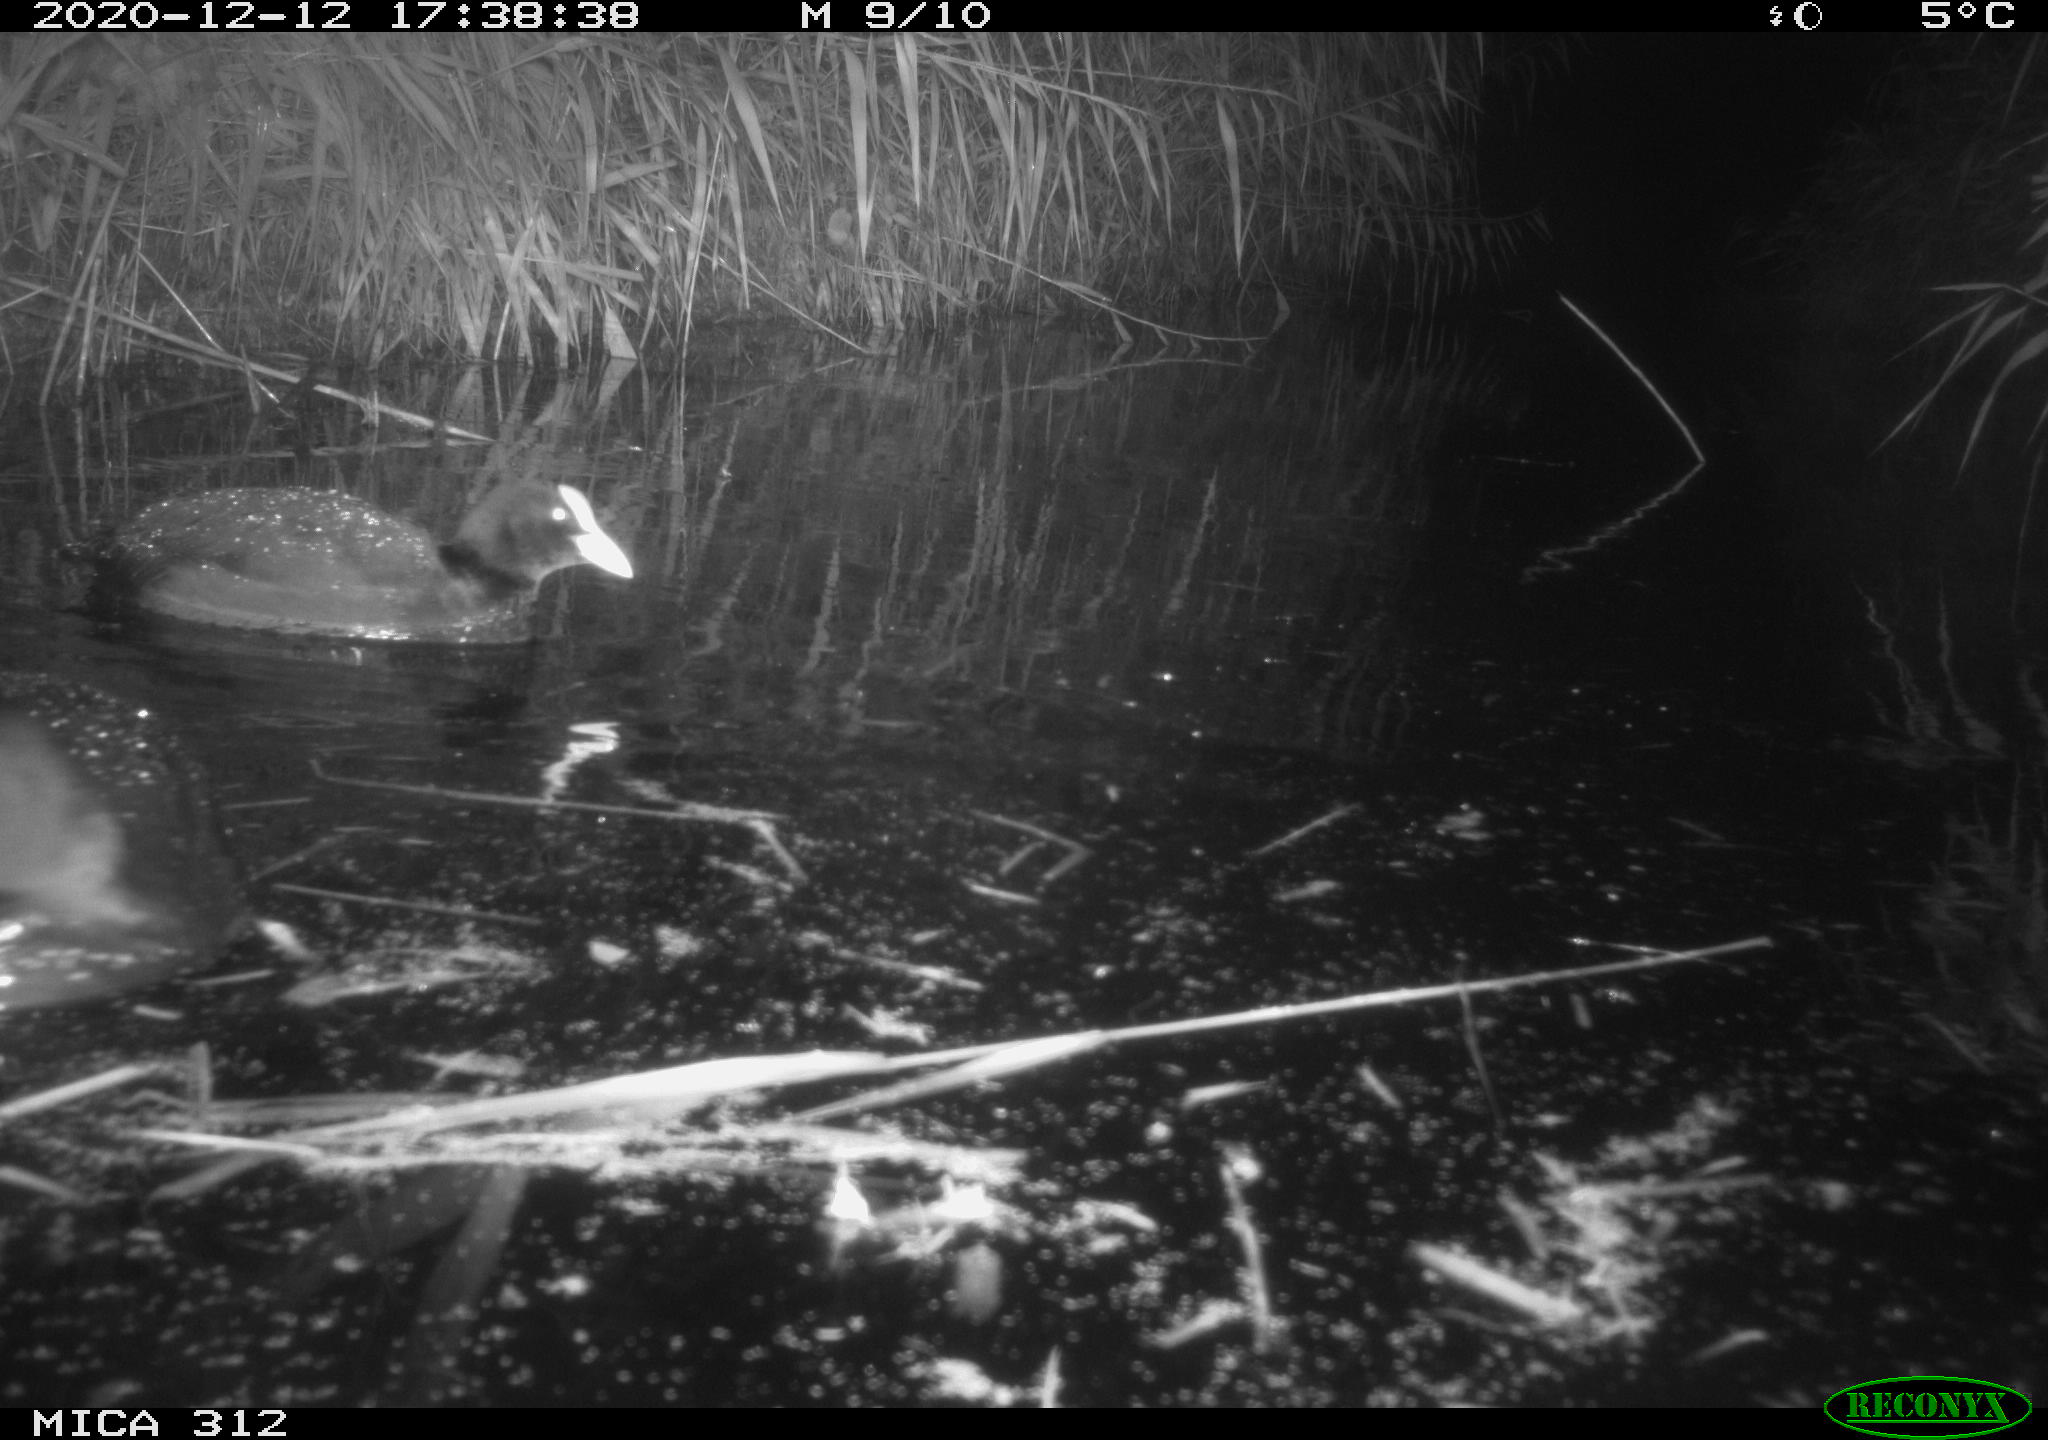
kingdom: Animalia
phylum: Chordata
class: Aves
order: Gruiformes
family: Rallidae
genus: Fulica
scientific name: Fulica atra
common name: Eurasian coot
